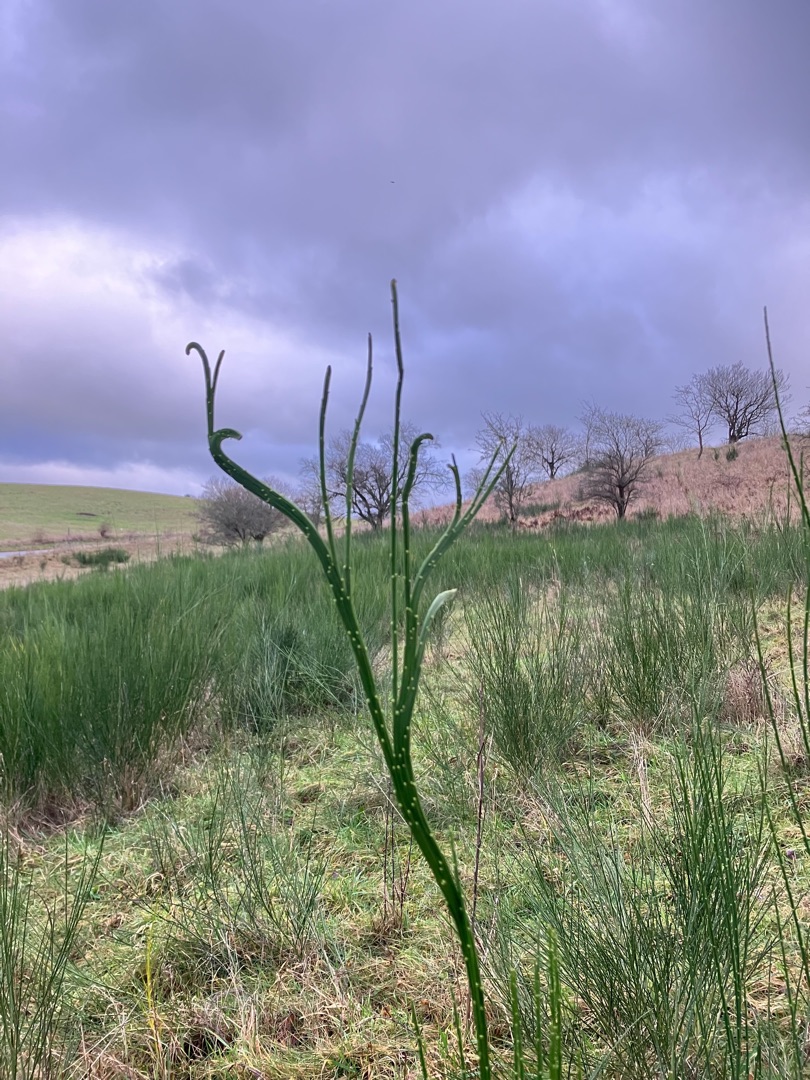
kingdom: Plantae
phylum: Tracheophyta
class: Magnoliopsida
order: Fabales
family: Fabaceae
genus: Cytisus
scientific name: Cytisus scoparius
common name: Almindelig gyvel
